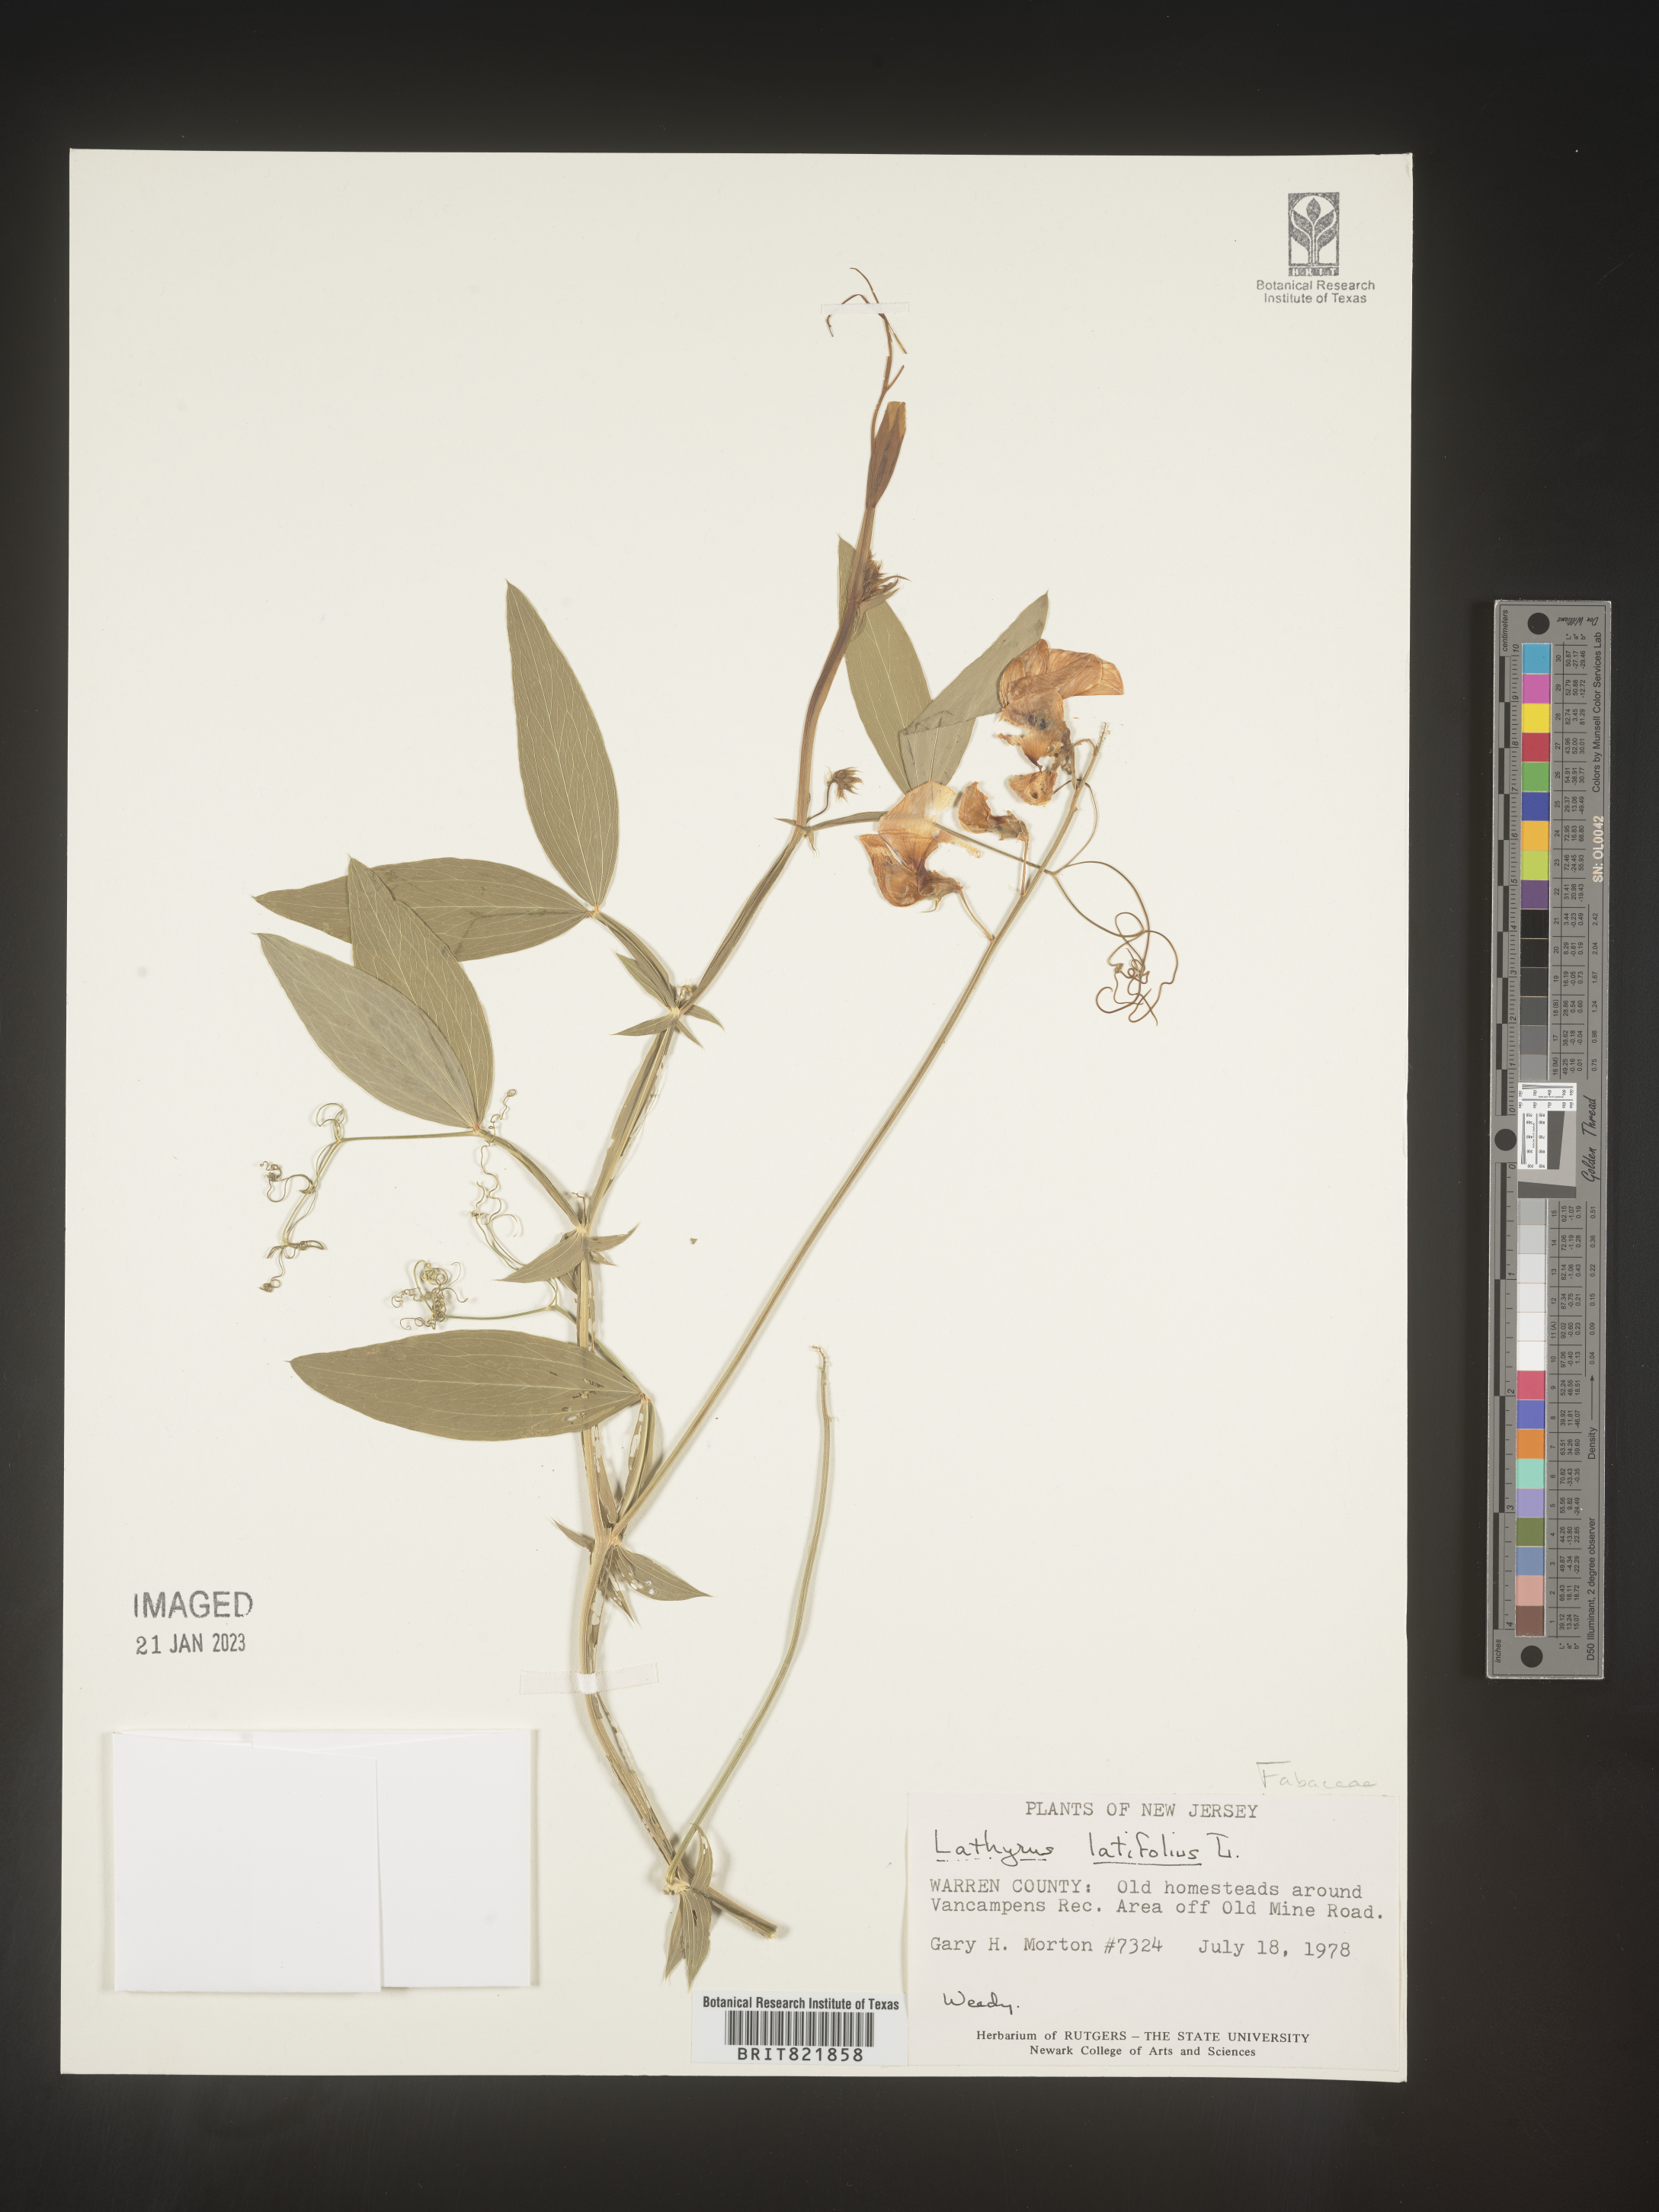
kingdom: Plantae
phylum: Tracheophyta
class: Magnoliopsida
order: Fabales
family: Fabaceae
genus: Lathyrus
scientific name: Lathyrus latifolius
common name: Perennial pea
